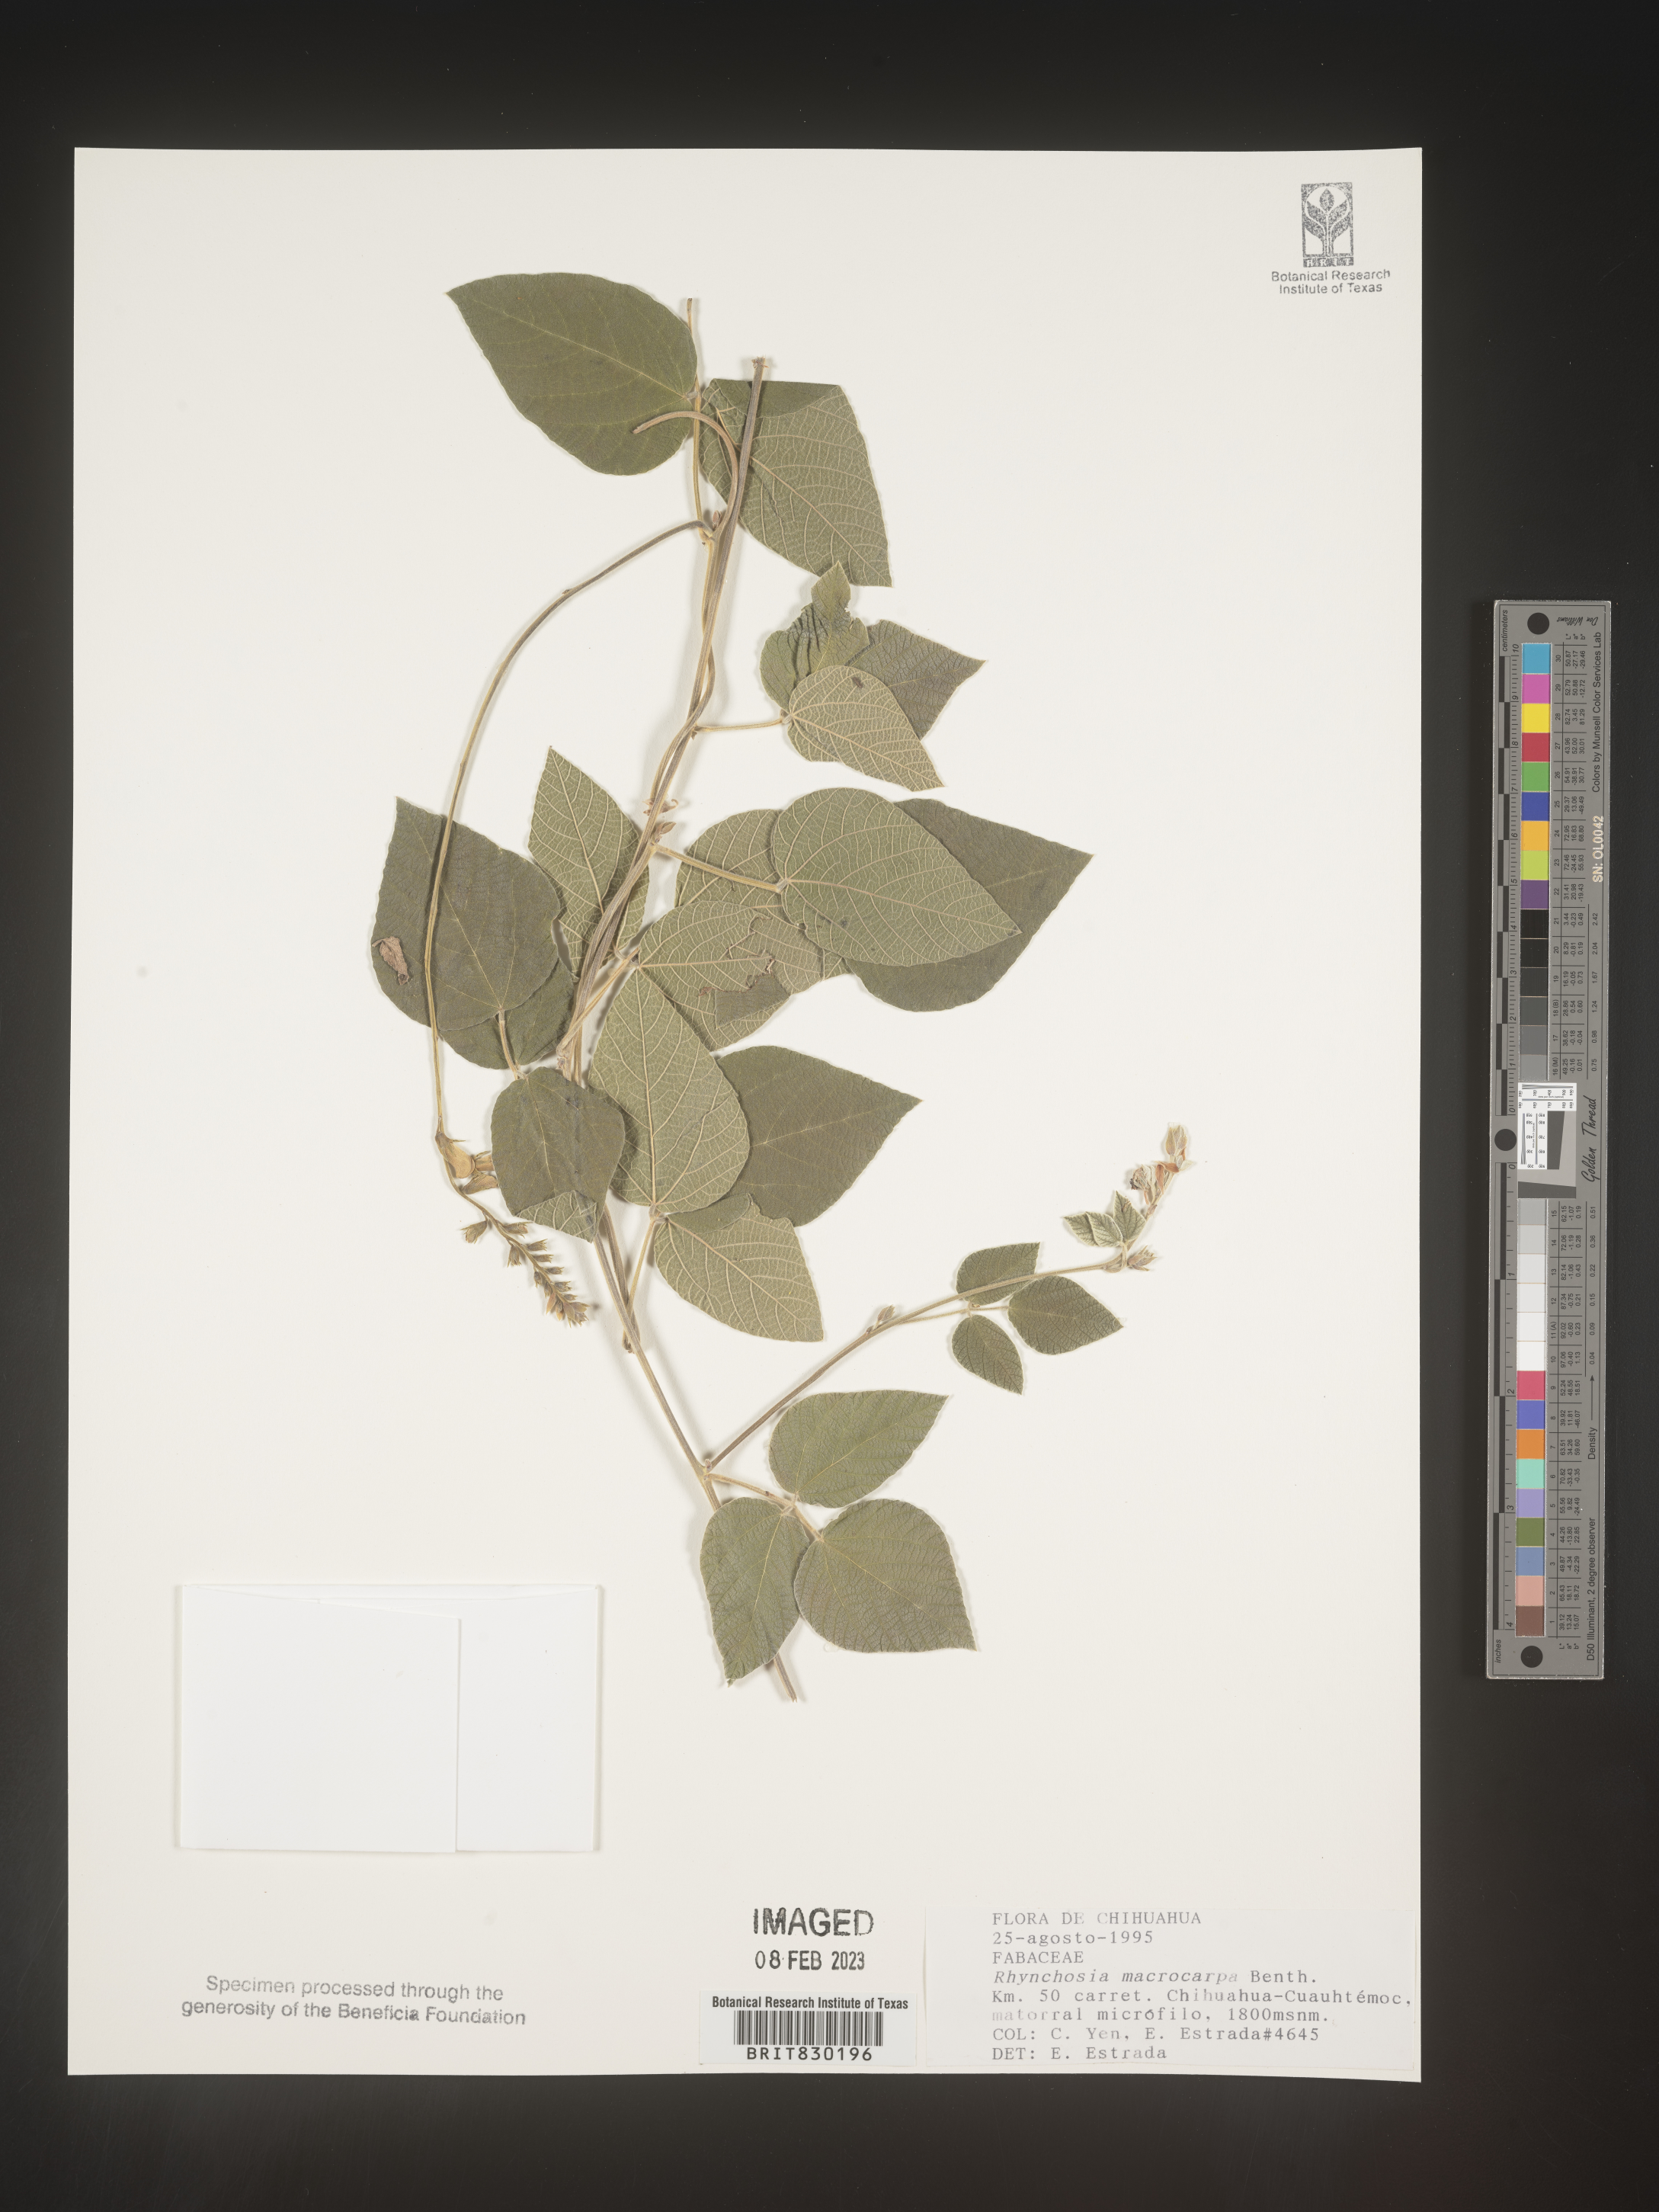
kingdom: Plantae
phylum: Tracheophyta
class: Magnoliopsida
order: Fabales
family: Fabaceae
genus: Rhynchosia
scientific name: Rhynchosia
